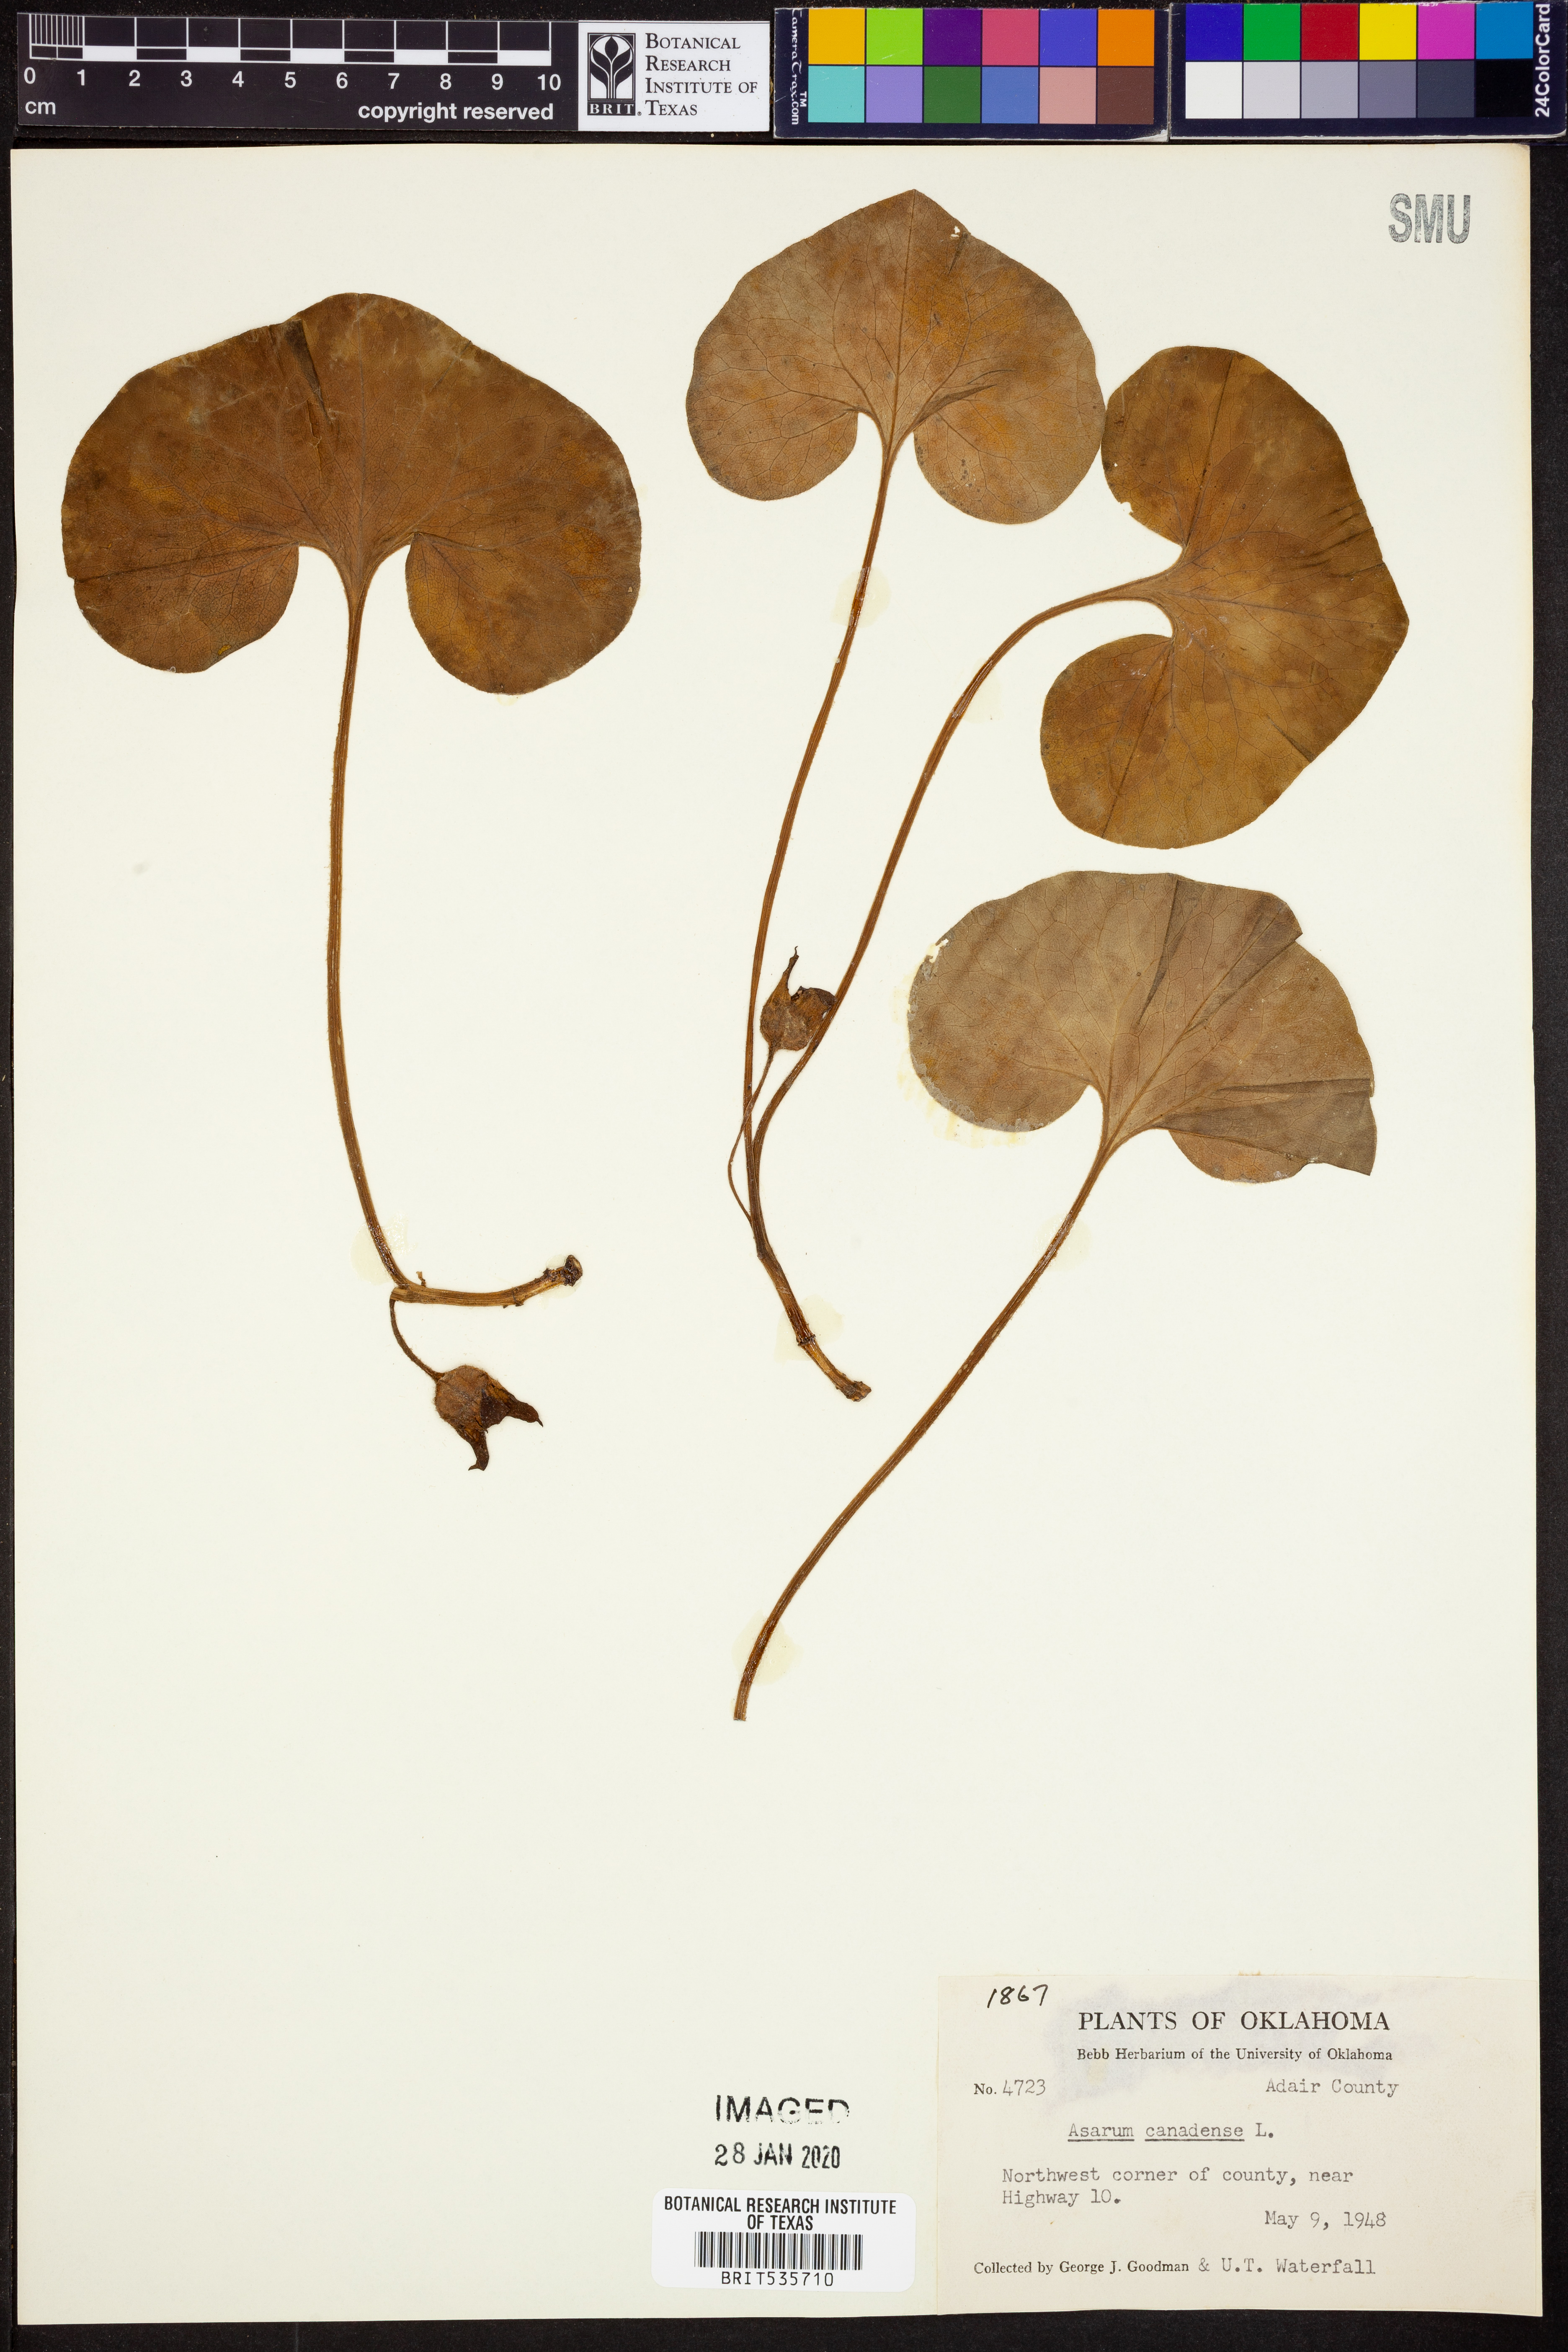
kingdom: Plantae
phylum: Tracheophyta
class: Magnoliopsida
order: Piperales
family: Aristolochiaceae
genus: Asarum
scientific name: Asarum canadense
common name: Wild ginger
